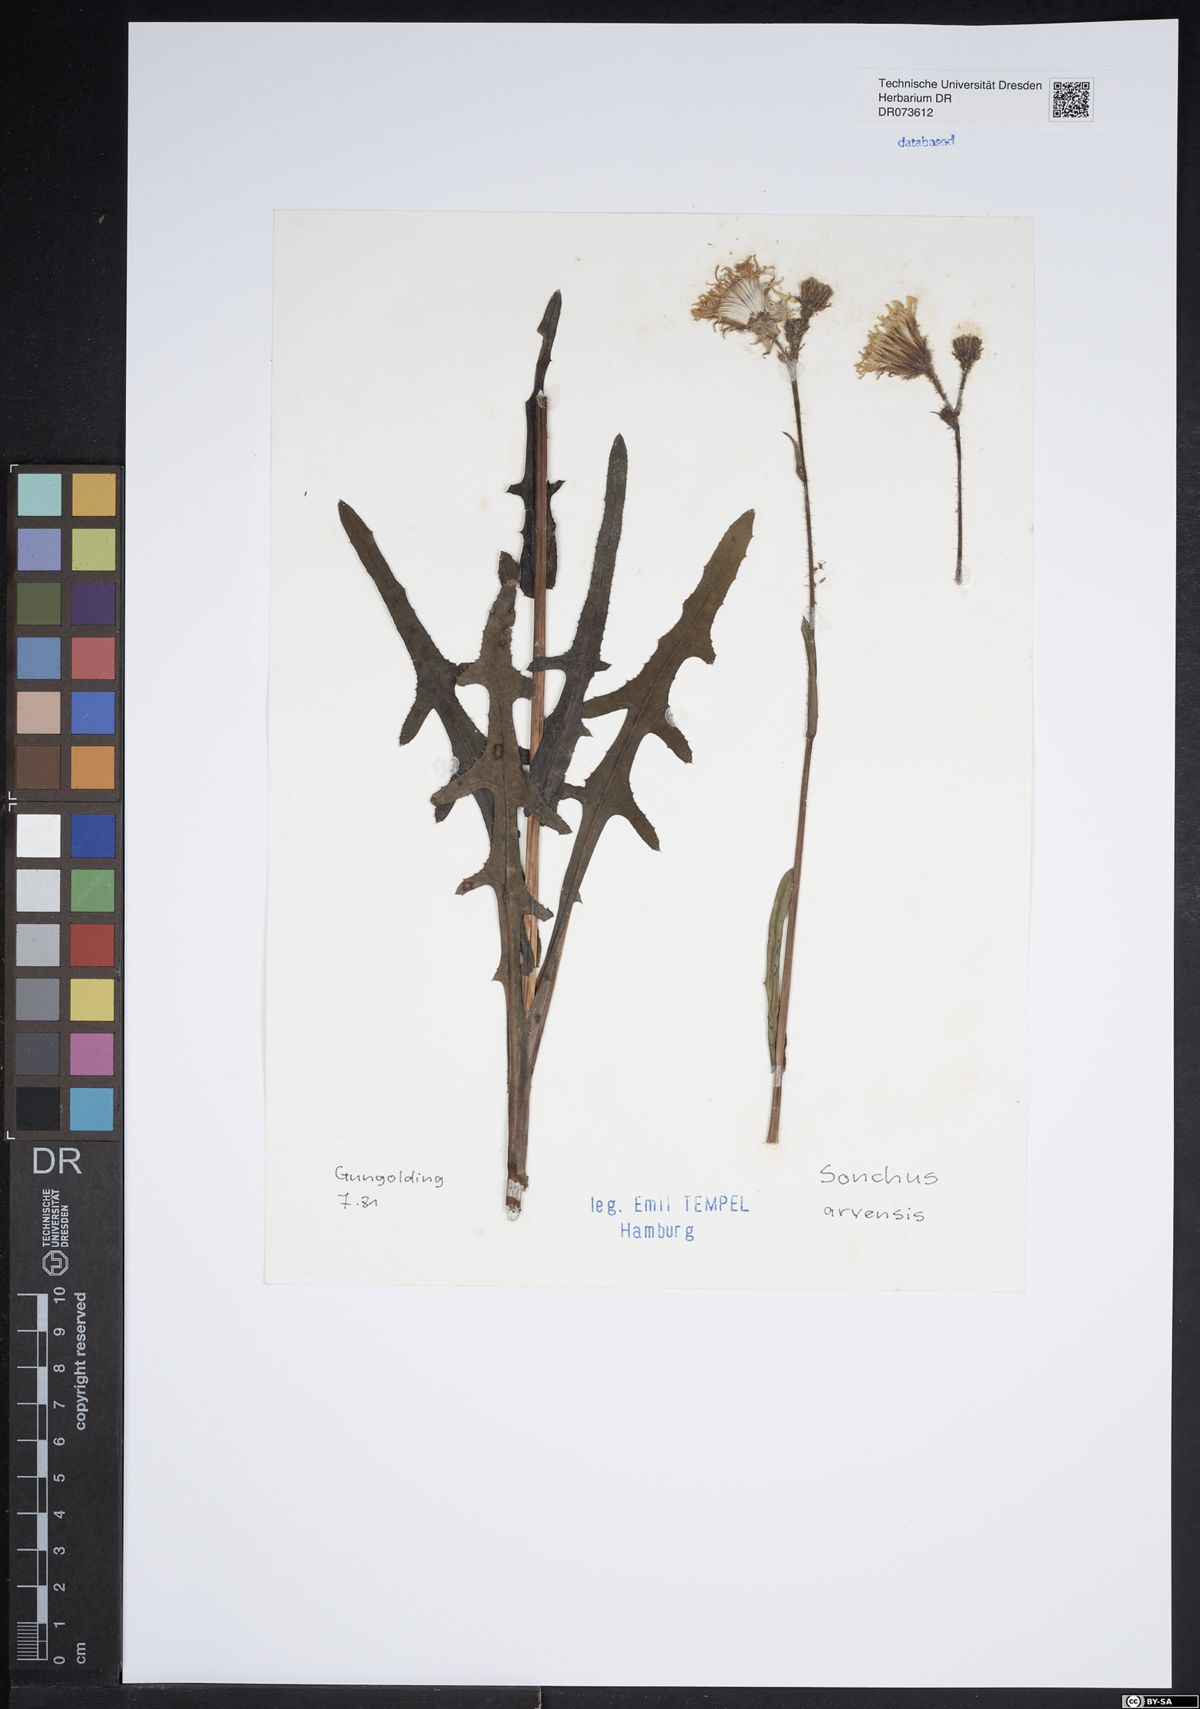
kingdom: Plantae
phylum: Tracheophyta
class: Magnoliopsida
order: Asterales
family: Asteraceae
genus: Sonchus
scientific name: Sonchus arvensis
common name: Perennial sow-thistle
